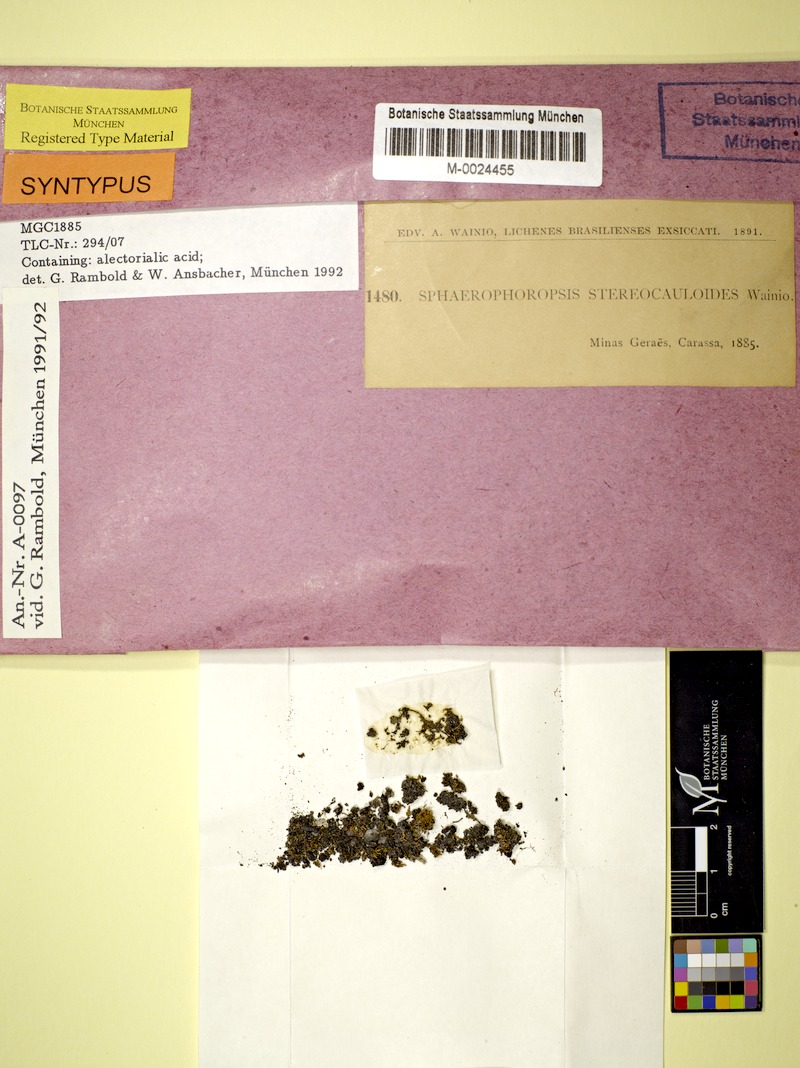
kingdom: Fungi
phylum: Ascomycota
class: Lecanoromycetes
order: Lecanorales
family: Cladoniaceae
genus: Sphaerophoropsis
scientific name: Sphaerophoropsis stereocauloides
